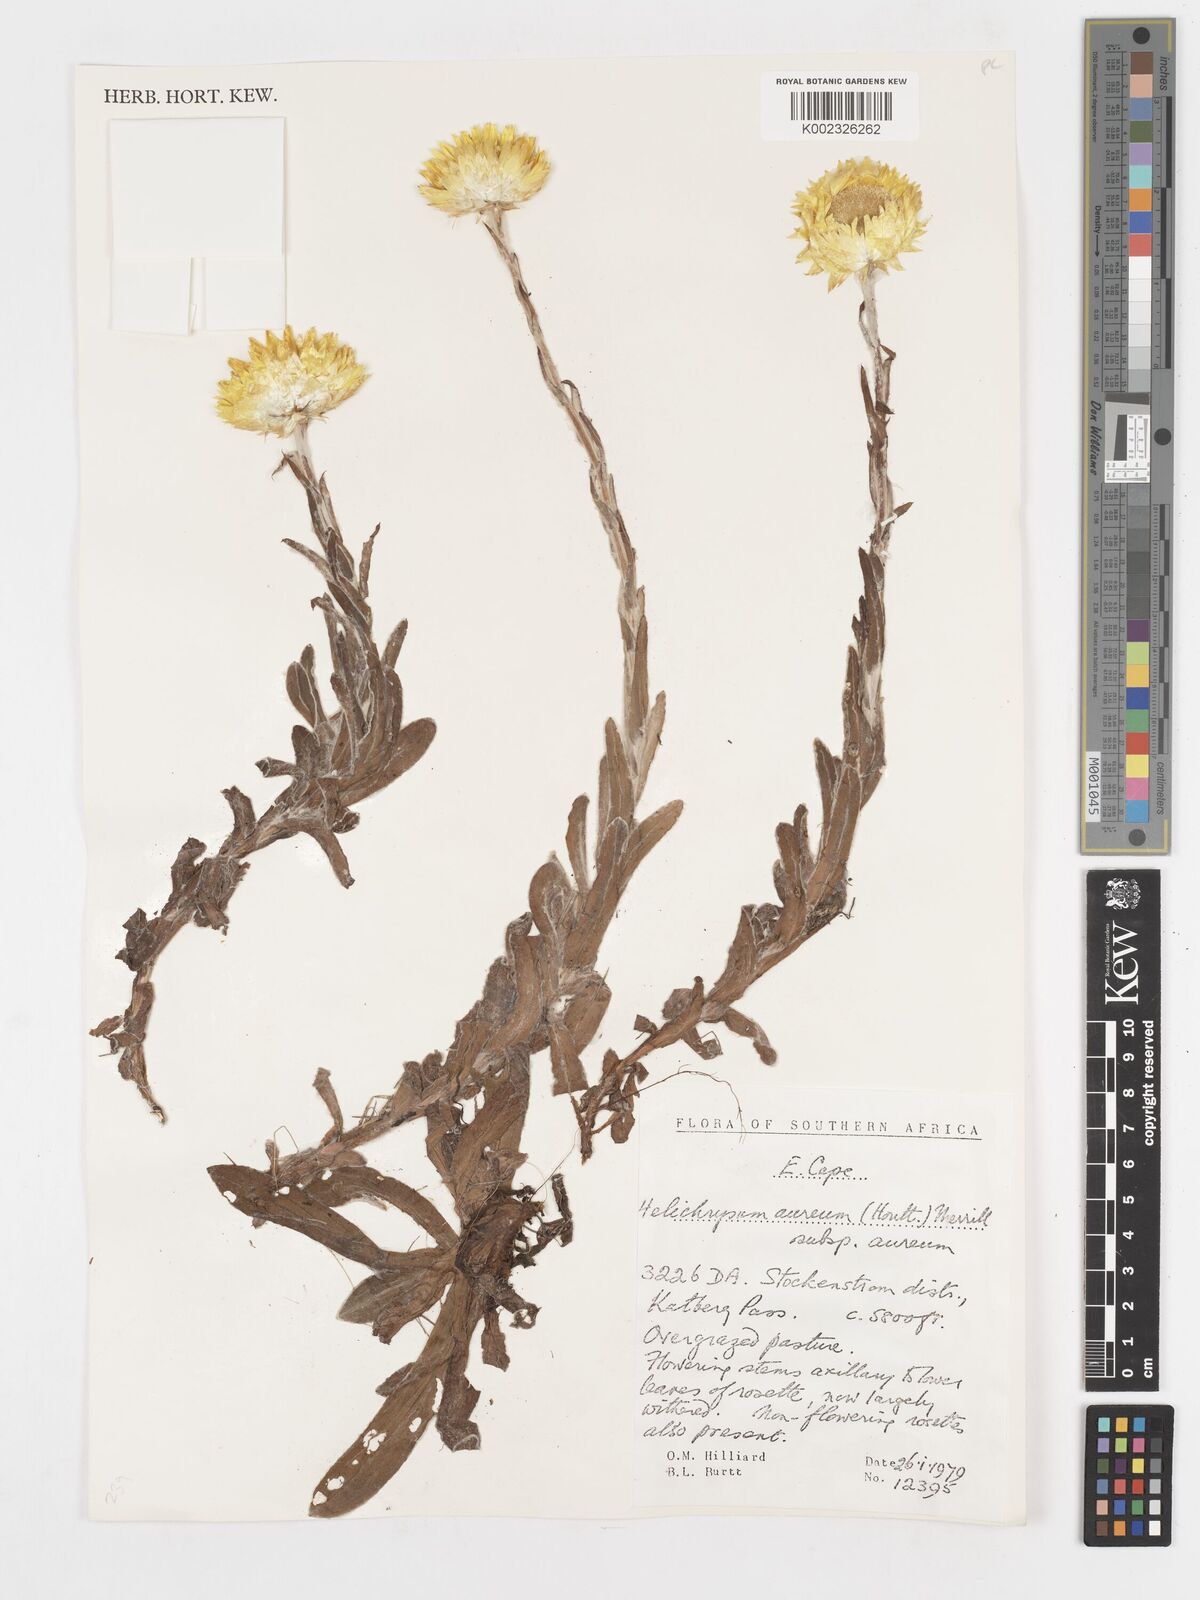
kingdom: Plantae
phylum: Tracheophyta
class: Magnoliopsida
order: Asterales
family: Asteraceae
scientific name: Asteraceae
